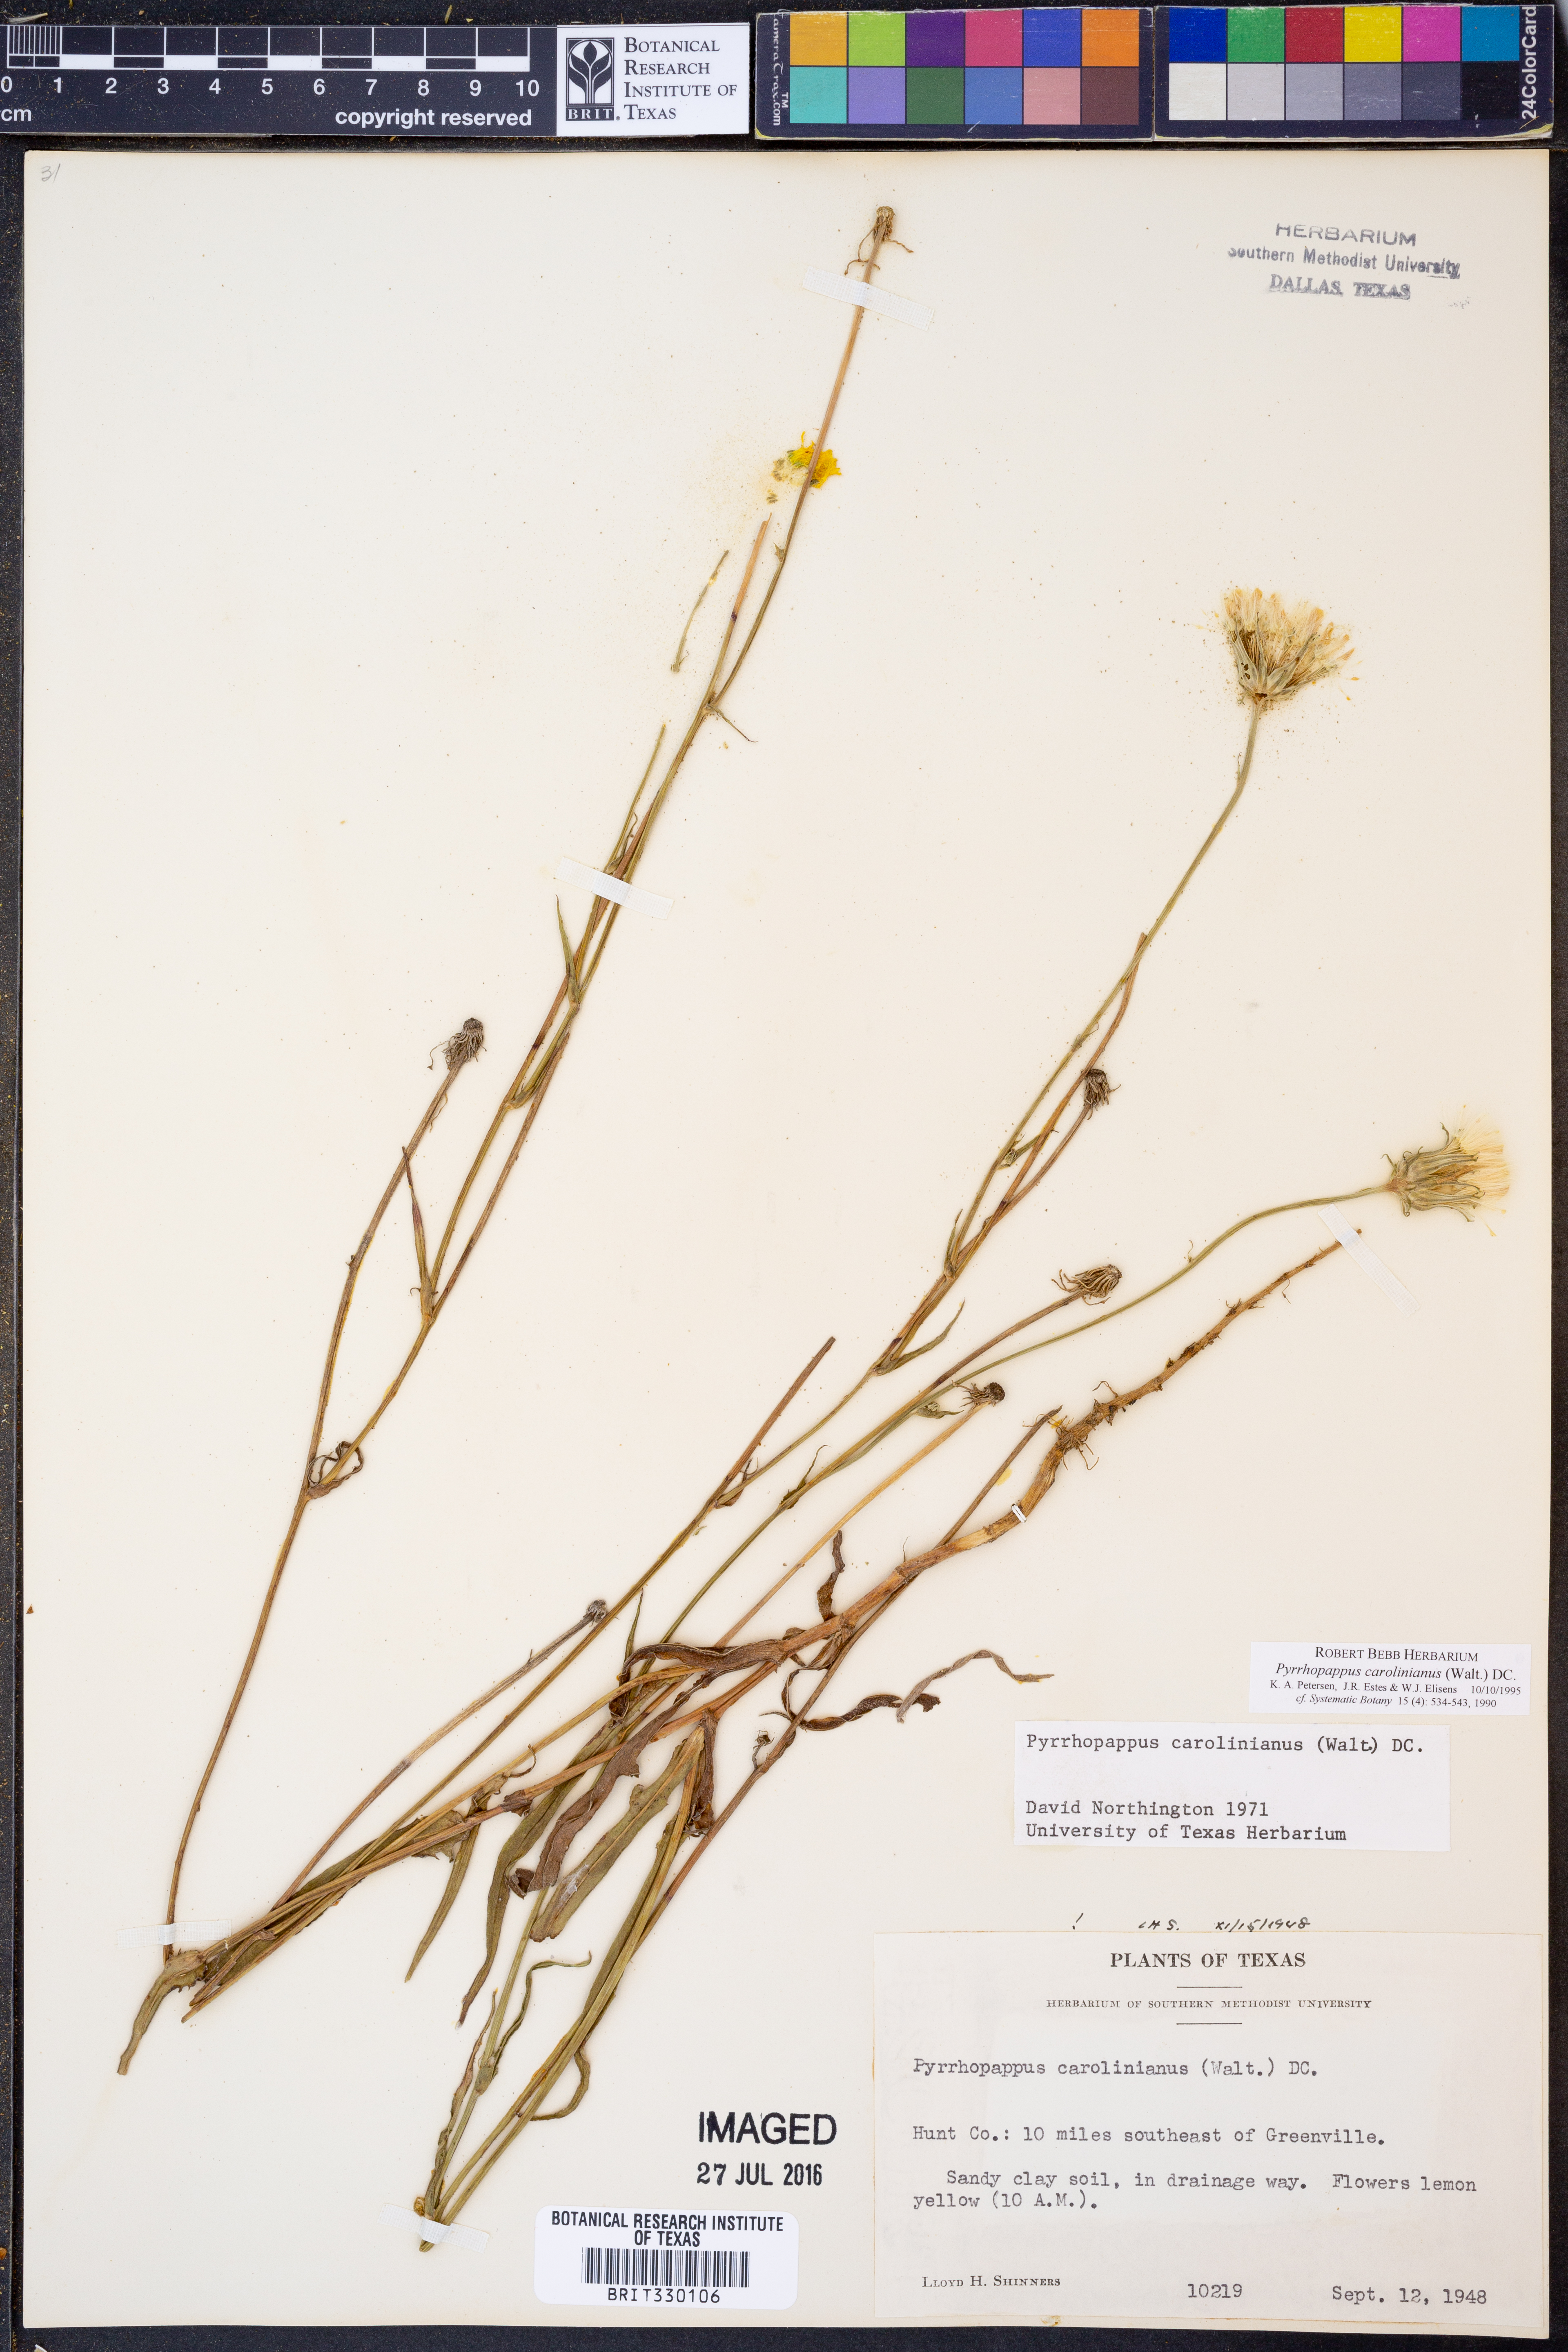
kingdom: Plantae
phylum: Tracheophyta
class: Magnoliopsida
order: Asterales
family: Asteraceae
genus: Pyrrhopappus
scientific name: Pyrrhopappus carolinianus
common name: Carolina desert-chicory
